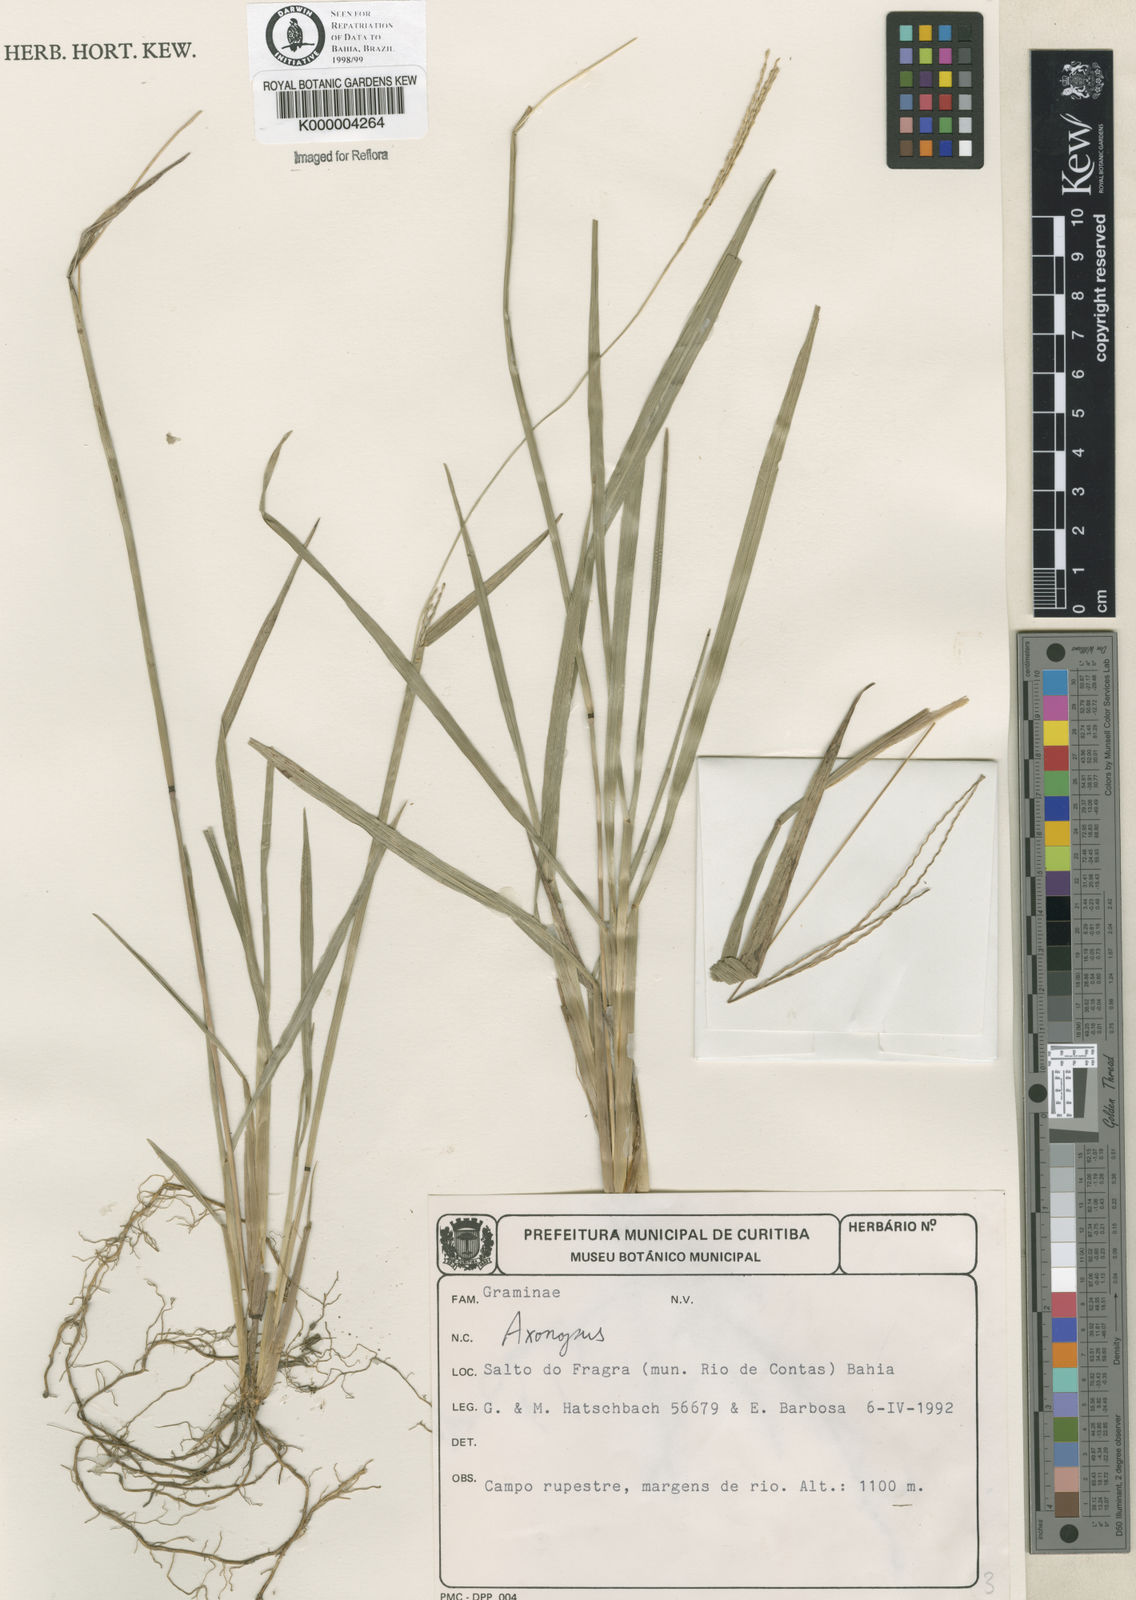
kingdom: Plantae
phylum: Tracheophyta
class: Liliopsida
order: Poales
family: Poaceae
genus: Axonopus
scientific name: Axonopus
